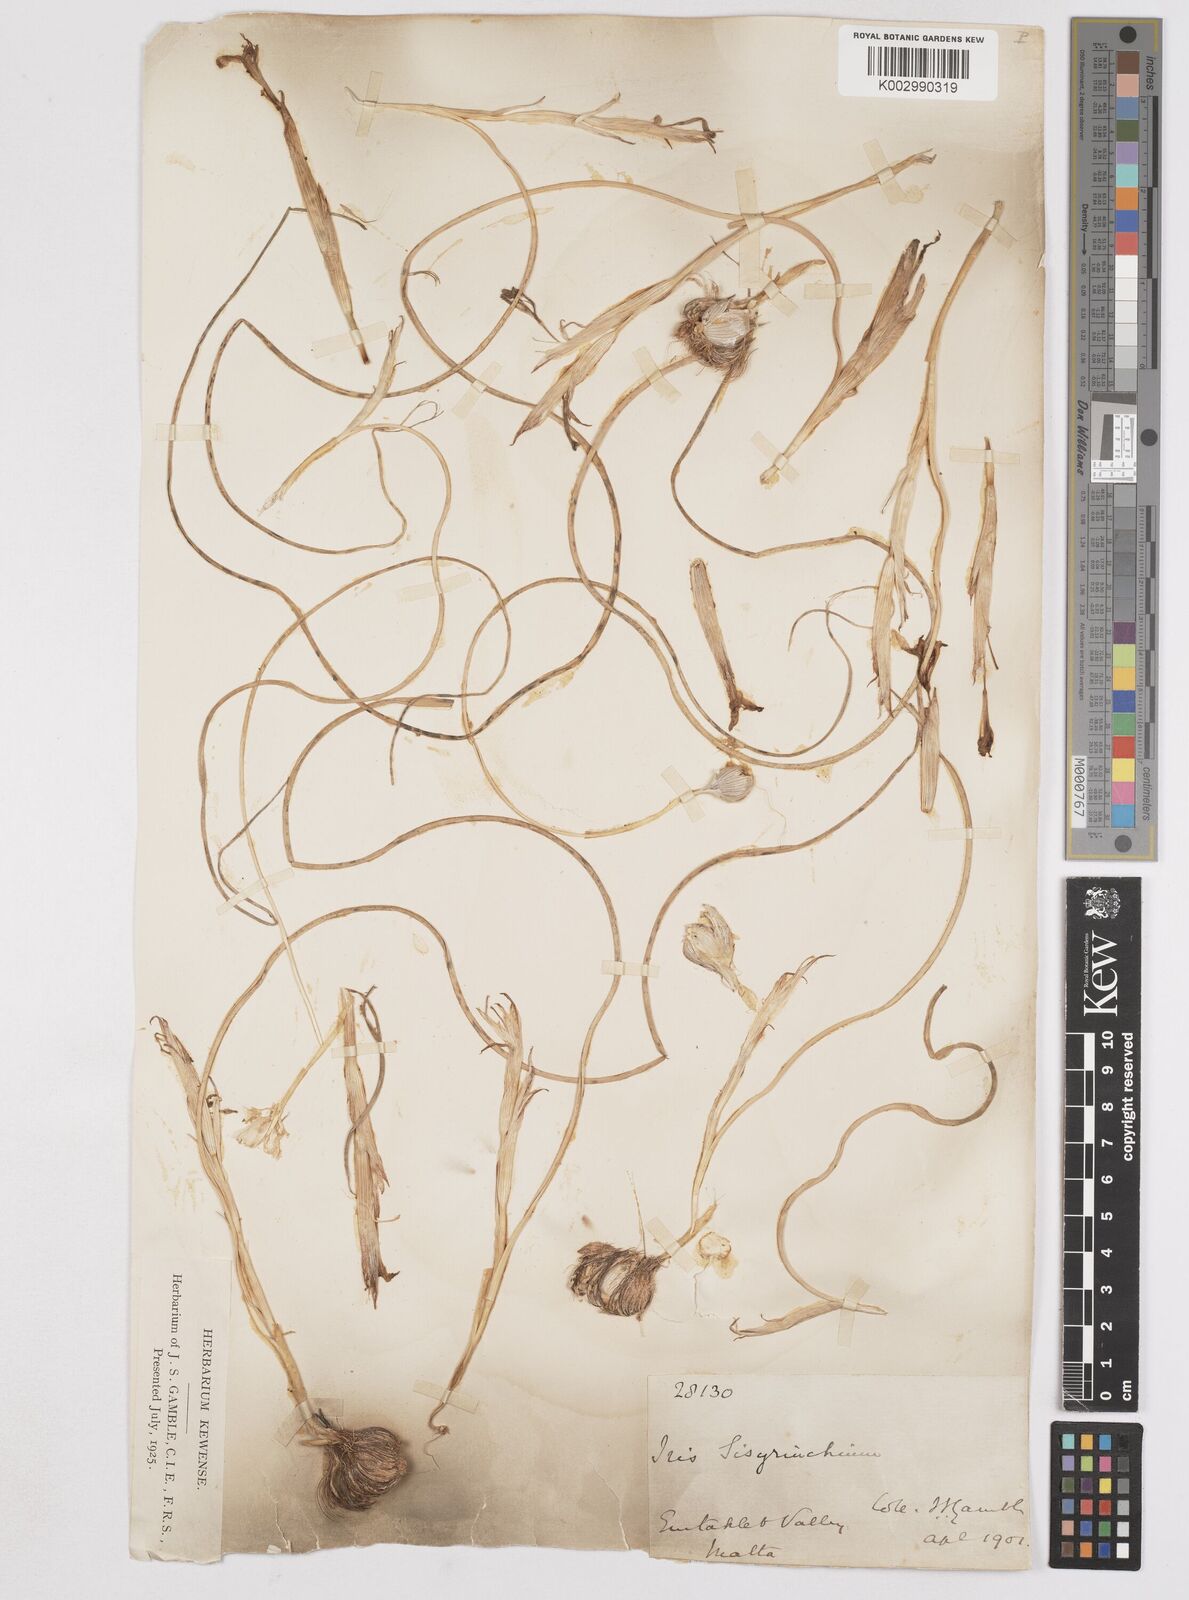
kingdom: Plantae
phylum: Tracheophyta
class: Liliopsida
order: Asparagales
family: Iridaceae
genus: Moraea
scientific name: Moraea sisyrinchium
